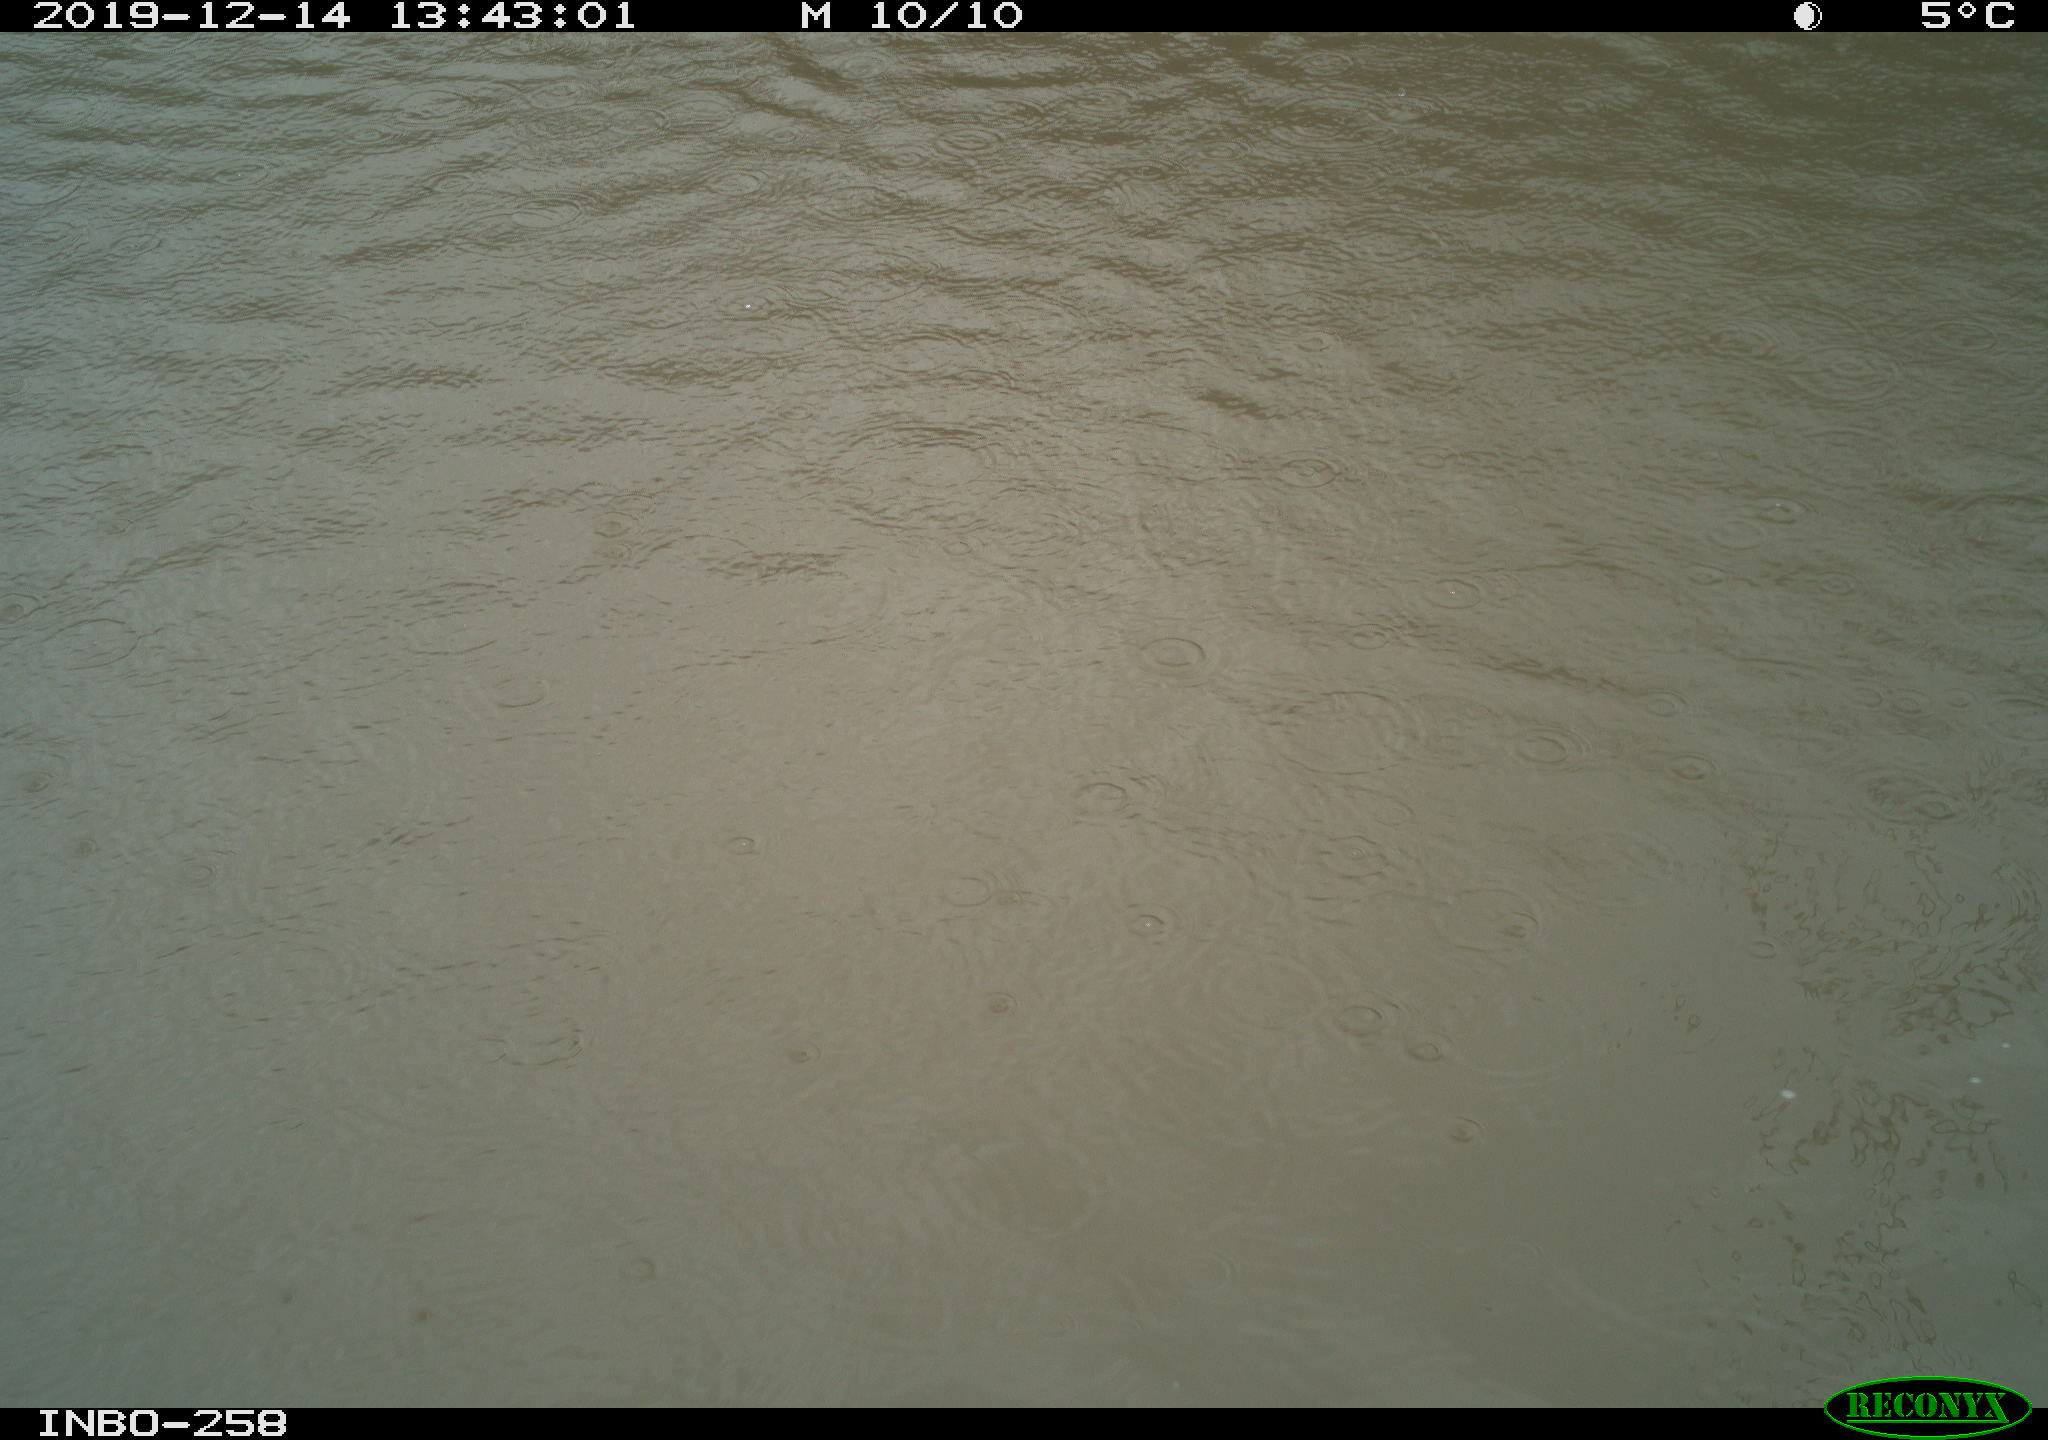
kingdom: Animalia
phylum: Chordata
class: Aves
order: Gruiformes
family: Rallidae
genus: Gallinula
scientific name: Gallinula chloropus
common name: Common moorhen
